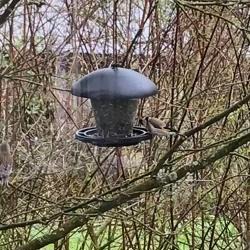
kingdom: Animalia
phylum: Chordata
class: Aves
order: Passeriformes
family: Fringillidae
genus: Carduelis
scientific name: Carduelis carduelis
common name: Stillits
